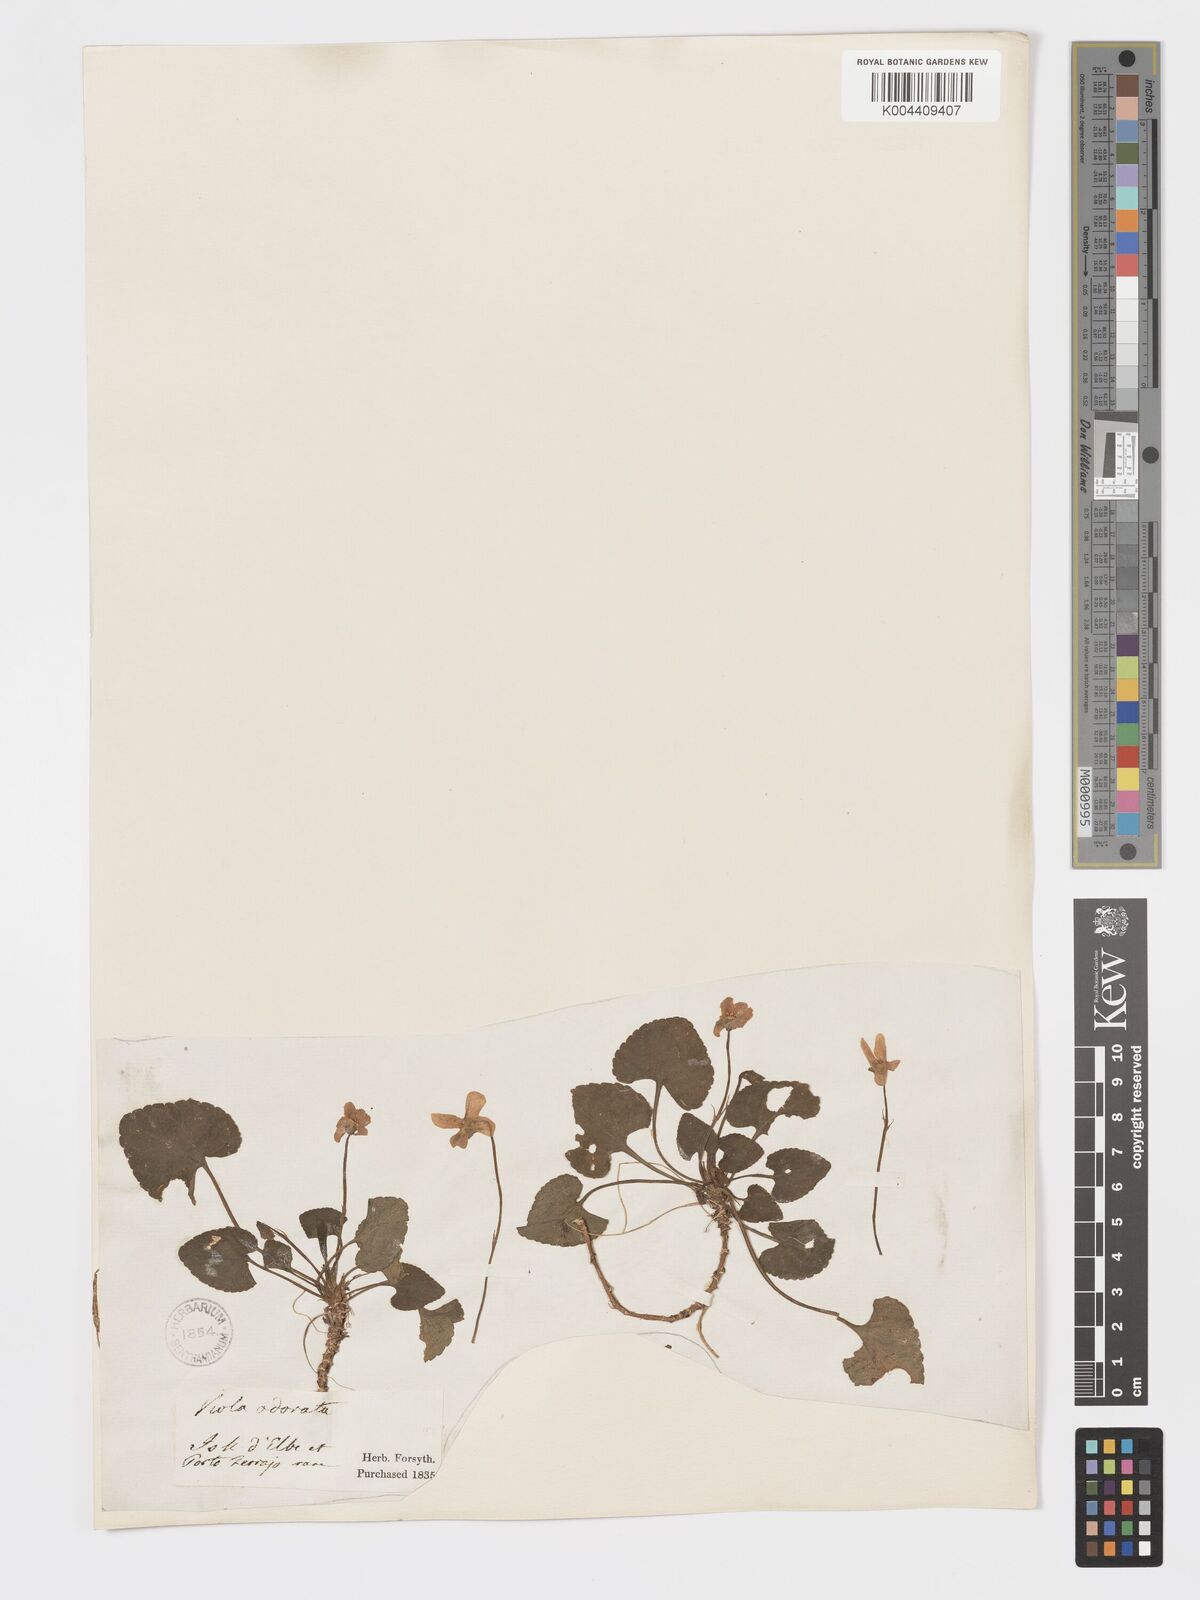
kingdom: Plantae
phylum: Tracheophyta
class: Magnoliopsida
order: Malpighiales
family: Violaceae
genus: Viola
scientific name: Viola alba
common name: White violet
